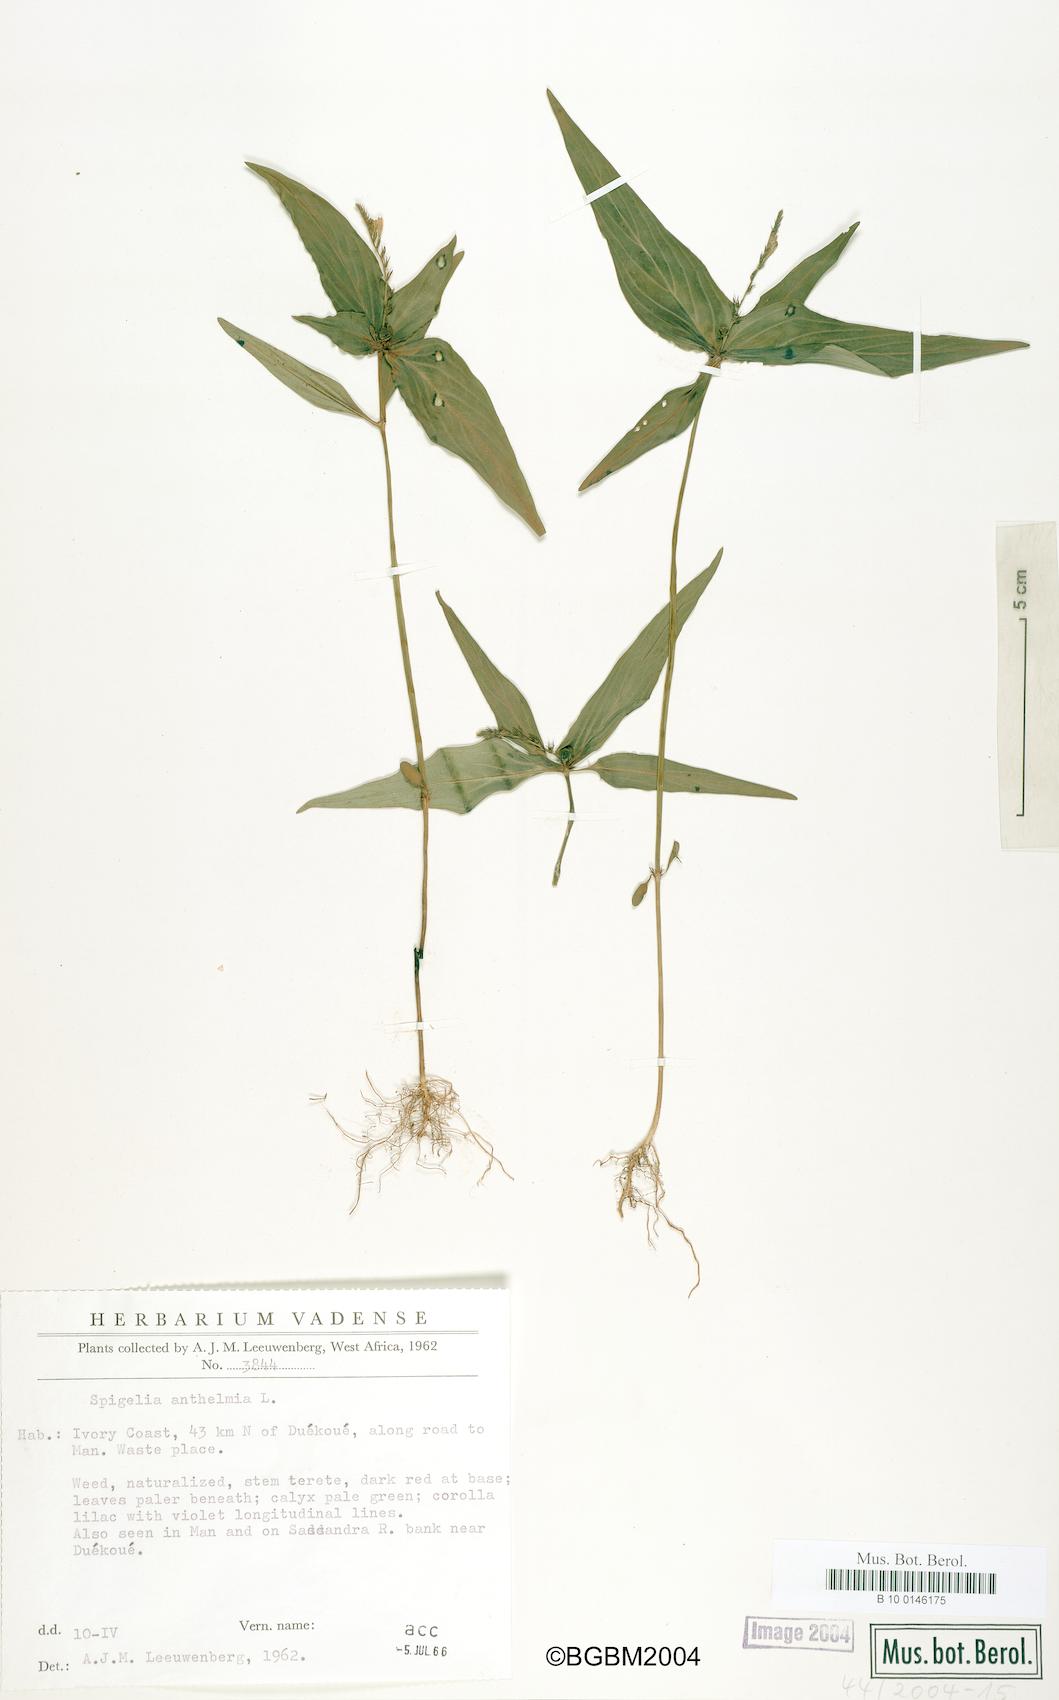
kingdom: Plantae
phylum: Tracheophyta
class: Magnoliopsida
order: Gentianales
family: Loganiaceae
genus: Spigelia
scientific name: Spigelia anthelmia
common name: West indian-pink
